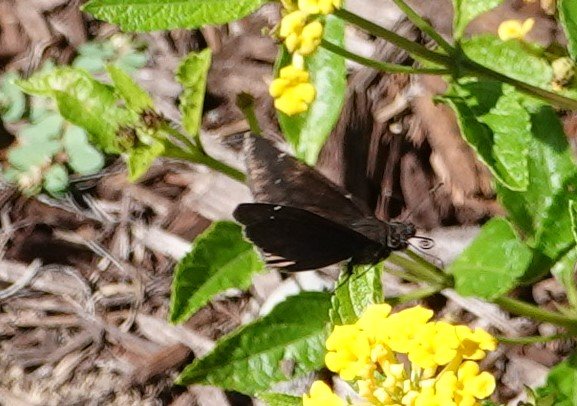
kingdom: Animalia
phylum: Arthropoda
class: Insecta
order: Lepidoptera
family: Hesperiidae
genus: Gesta
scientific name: Gesta
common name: Horace's Duskywing
